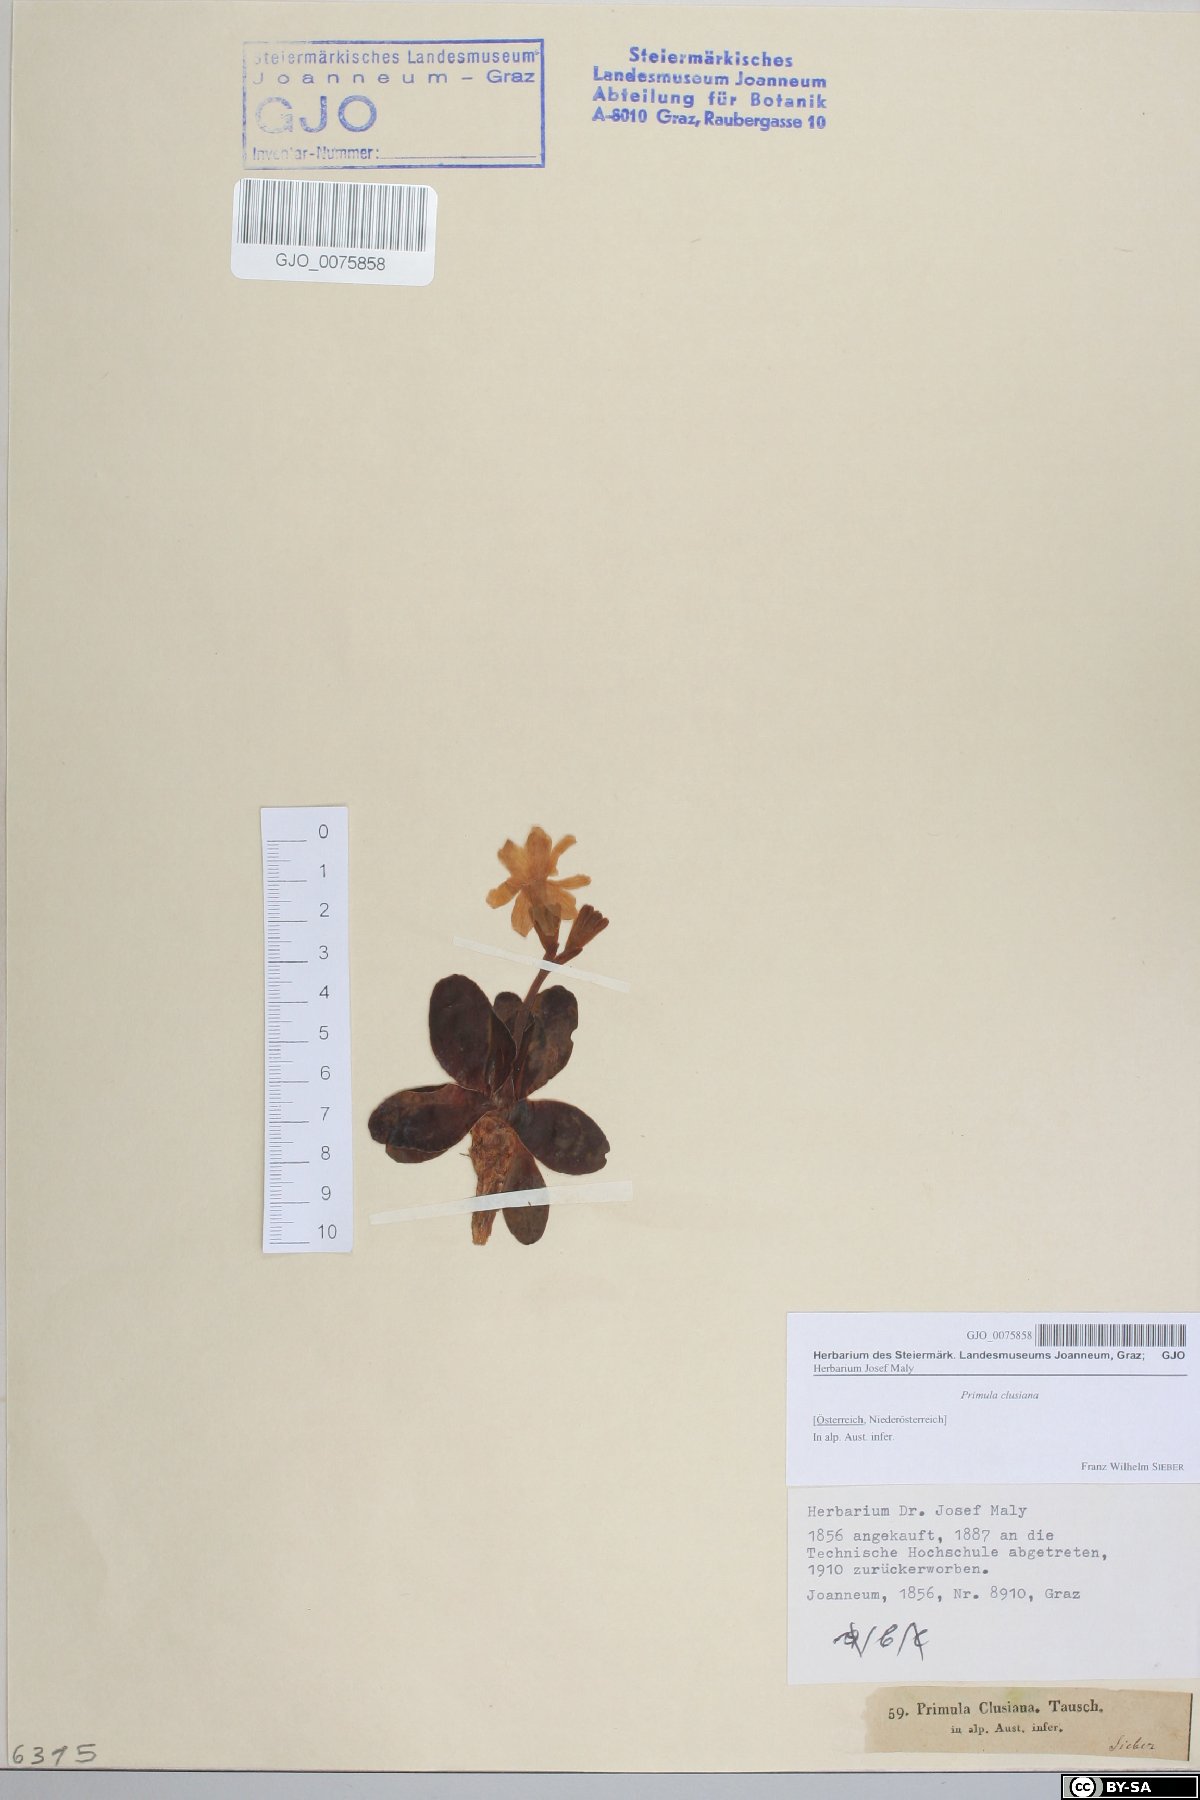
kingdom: Plantae
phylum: Tracheophyta
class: Magnoliopsida
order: Ericales
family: Primulaceae
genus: Primula
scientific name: Primula clusiana
